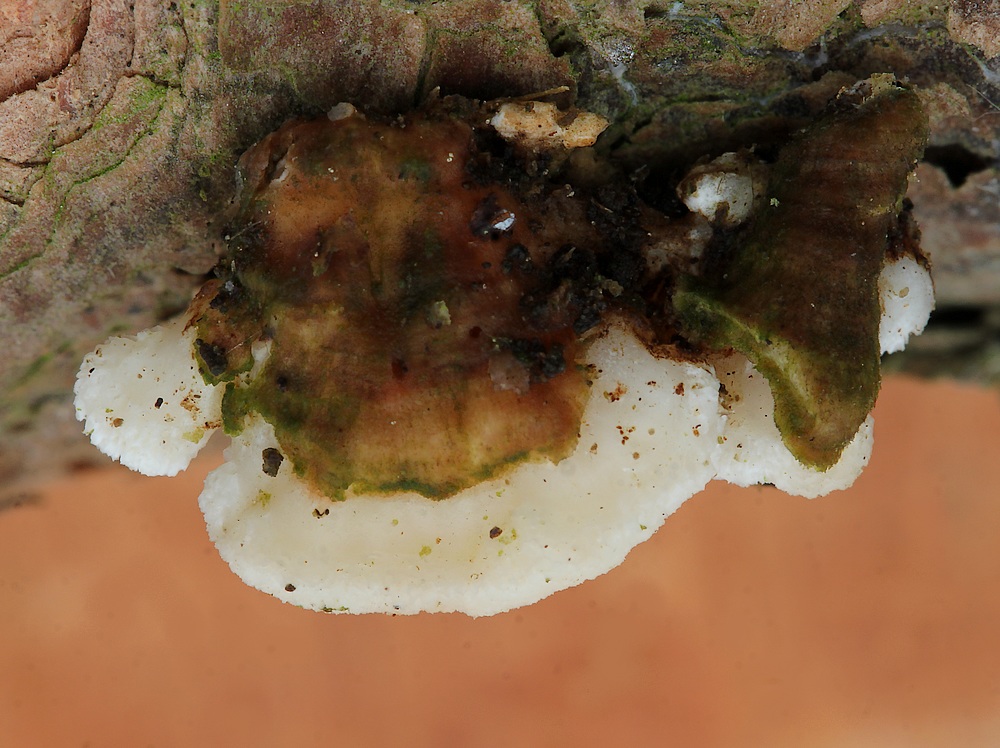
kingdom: Fungi
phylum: Basidiomycota
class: Agaricomycetes
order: Polyporales
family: Steccherinaceae
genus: Antrodiella
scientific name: Antrodiella parasitica
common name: violpore-elastiskporesvamp
